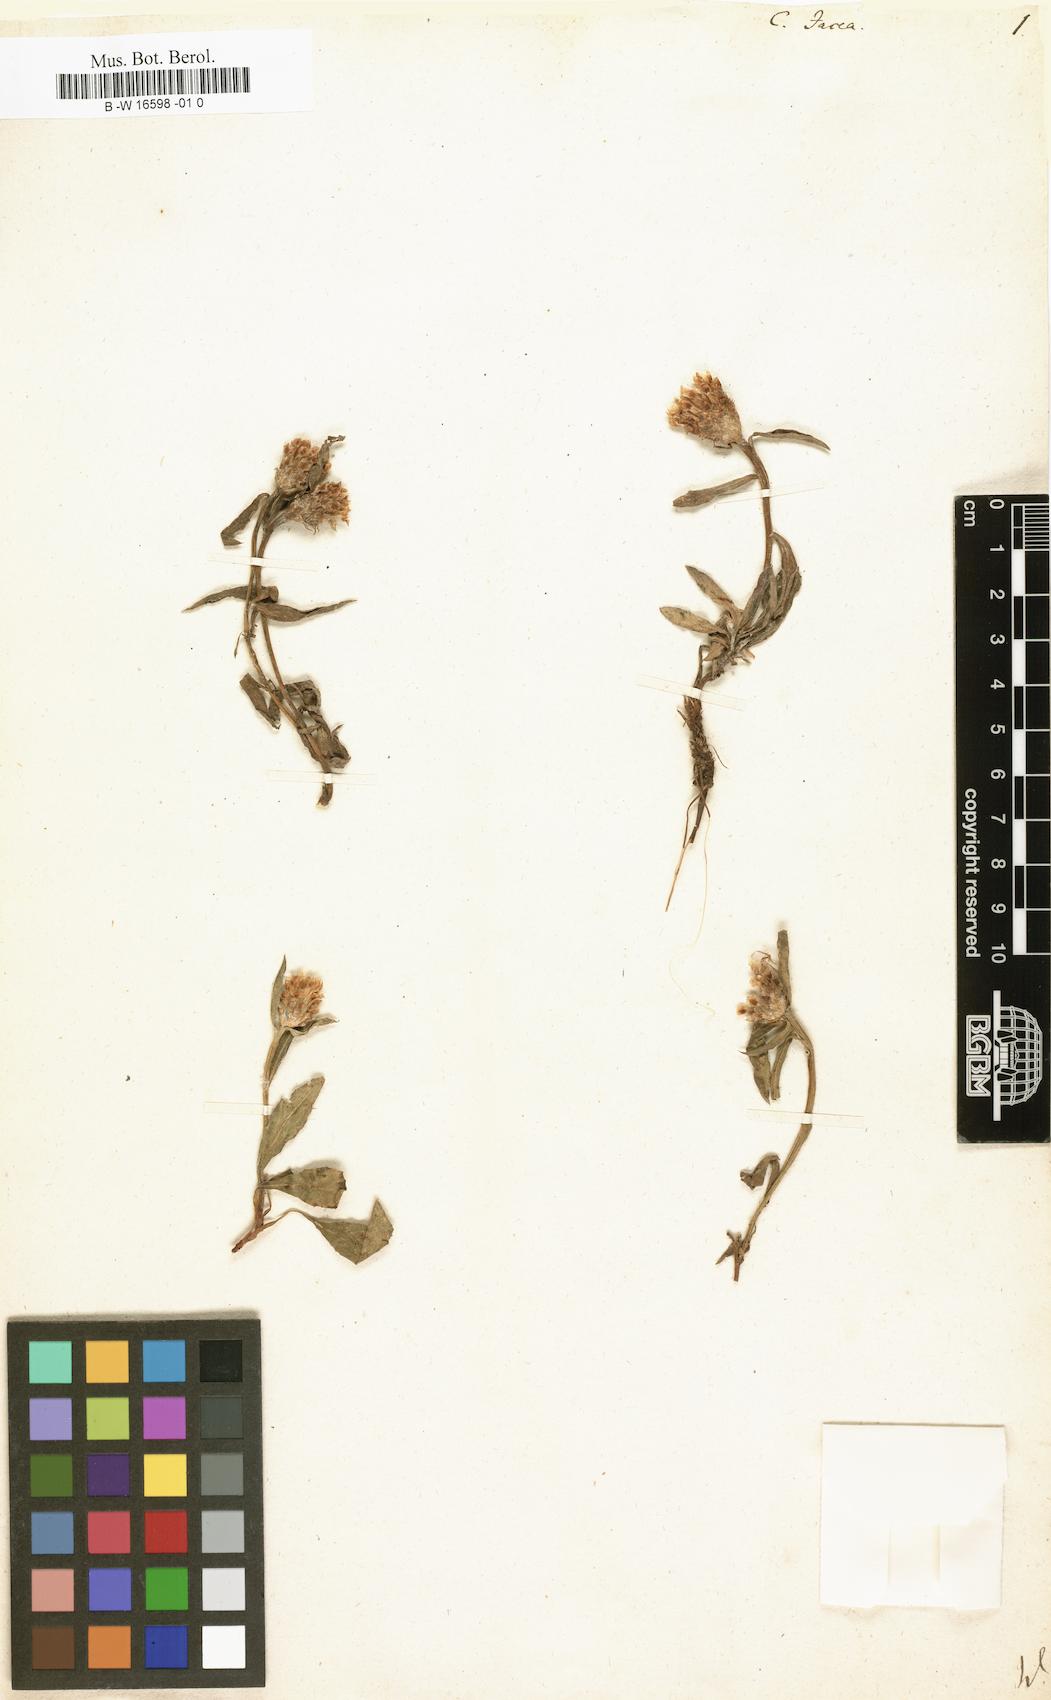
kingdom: Plantae
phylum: Tracheophyta
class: Magnoliopsida
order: Asterales
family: Asteraceae
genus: Centaurea
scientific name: Centaurea jacea
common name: Brown knapweed
